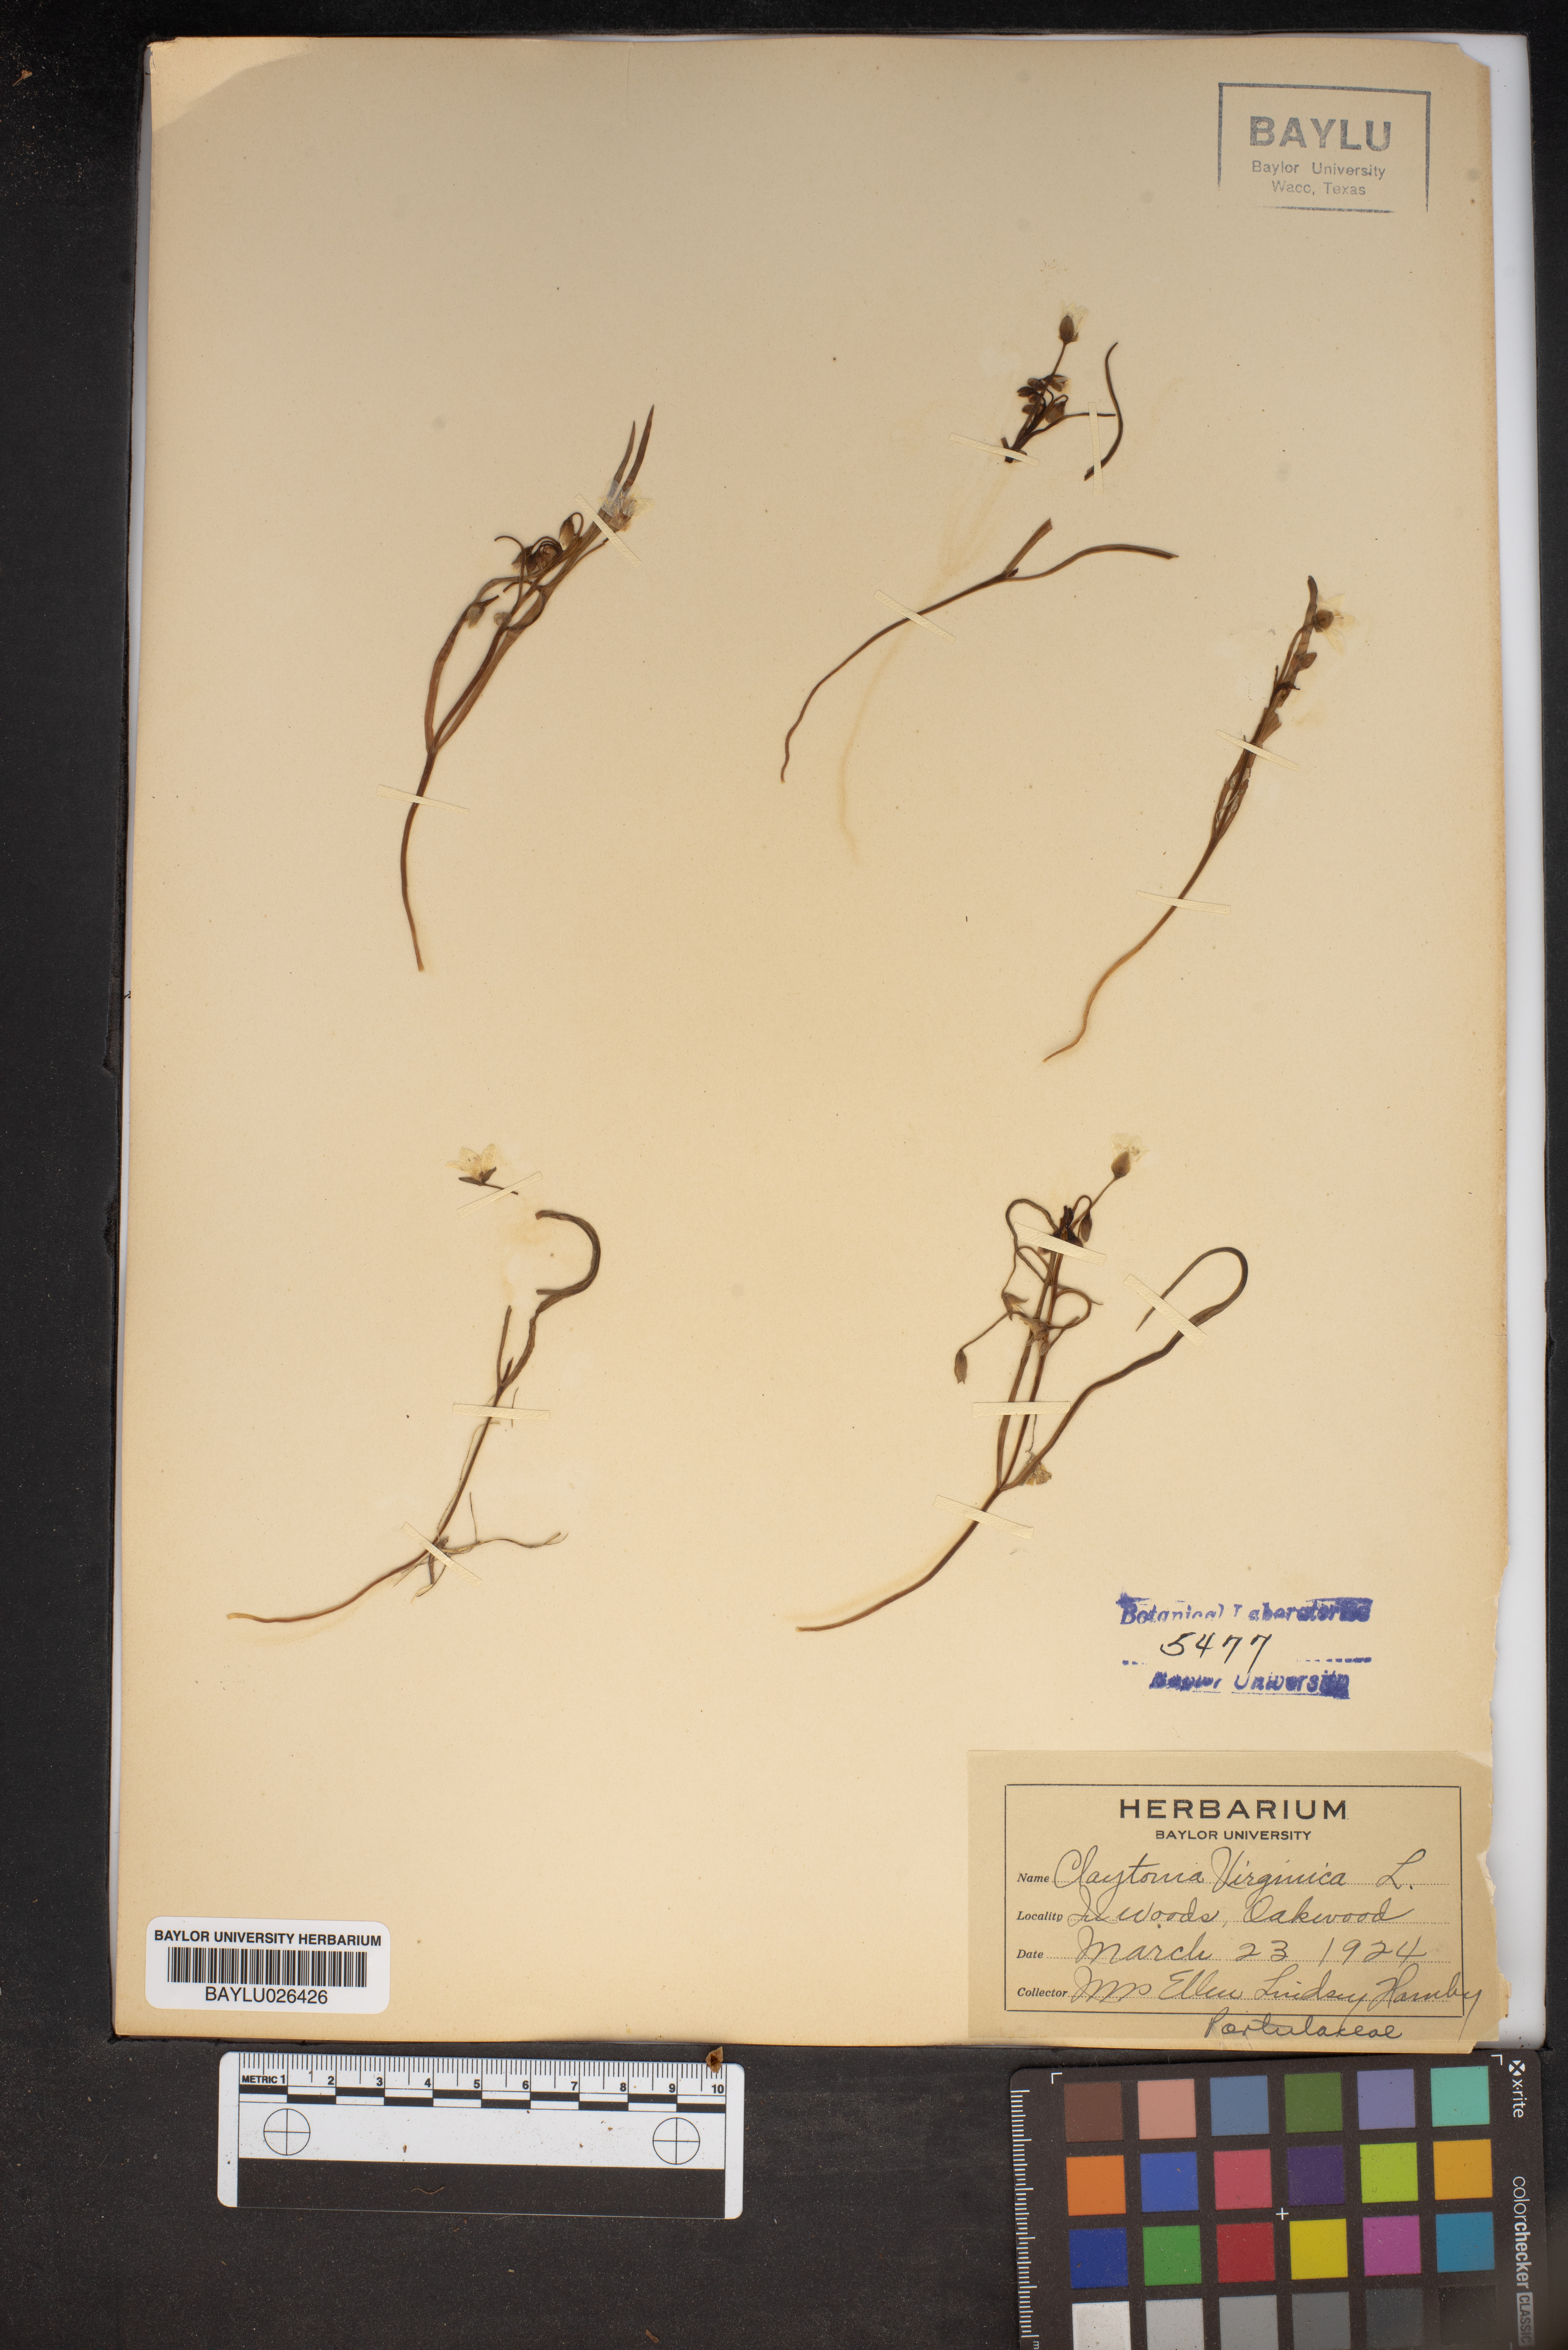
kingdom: Plantae
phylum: Tracheophyta
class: Magnoliopsida
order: Caryophyllales
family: Montiaceae
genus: Claytonia
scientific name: Claytonia virginica
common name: Virginia springbeauty
